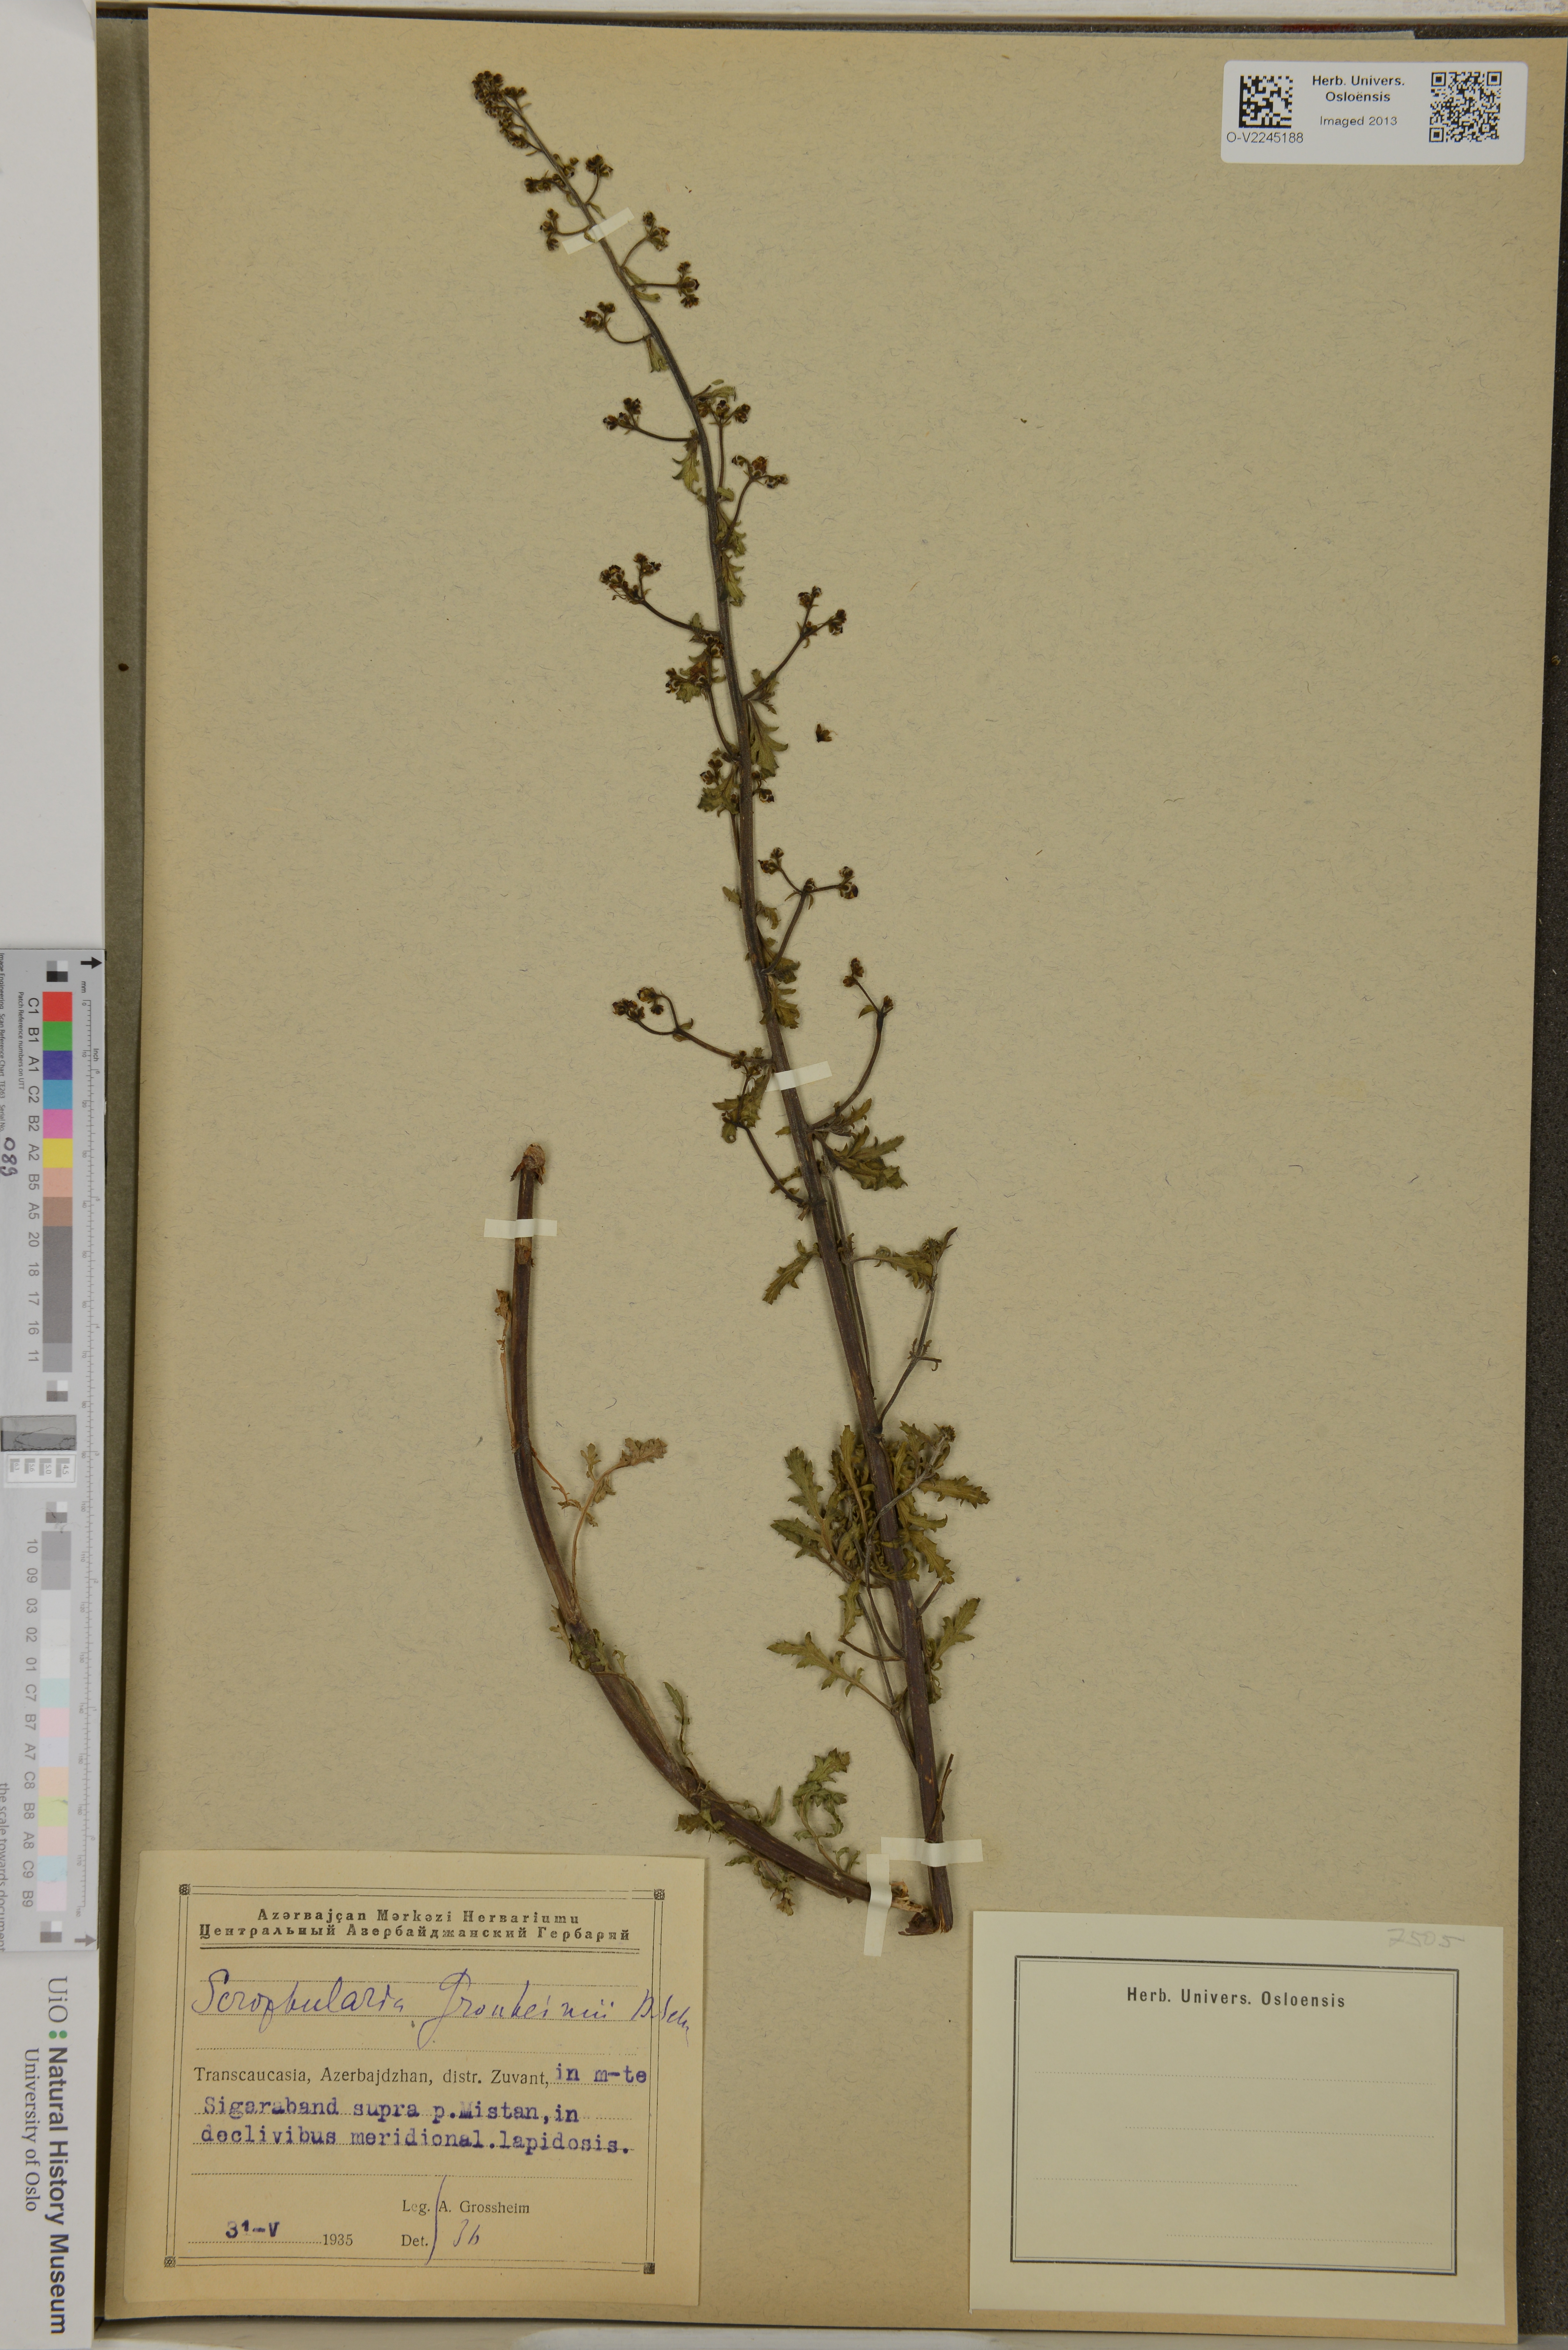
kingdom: Plantae
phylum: Tracheophyta
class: Magnoliopsida
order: Lamiales
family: Scrophulariaceae
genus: Scrophularia
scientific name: Scrophularia versicolor
